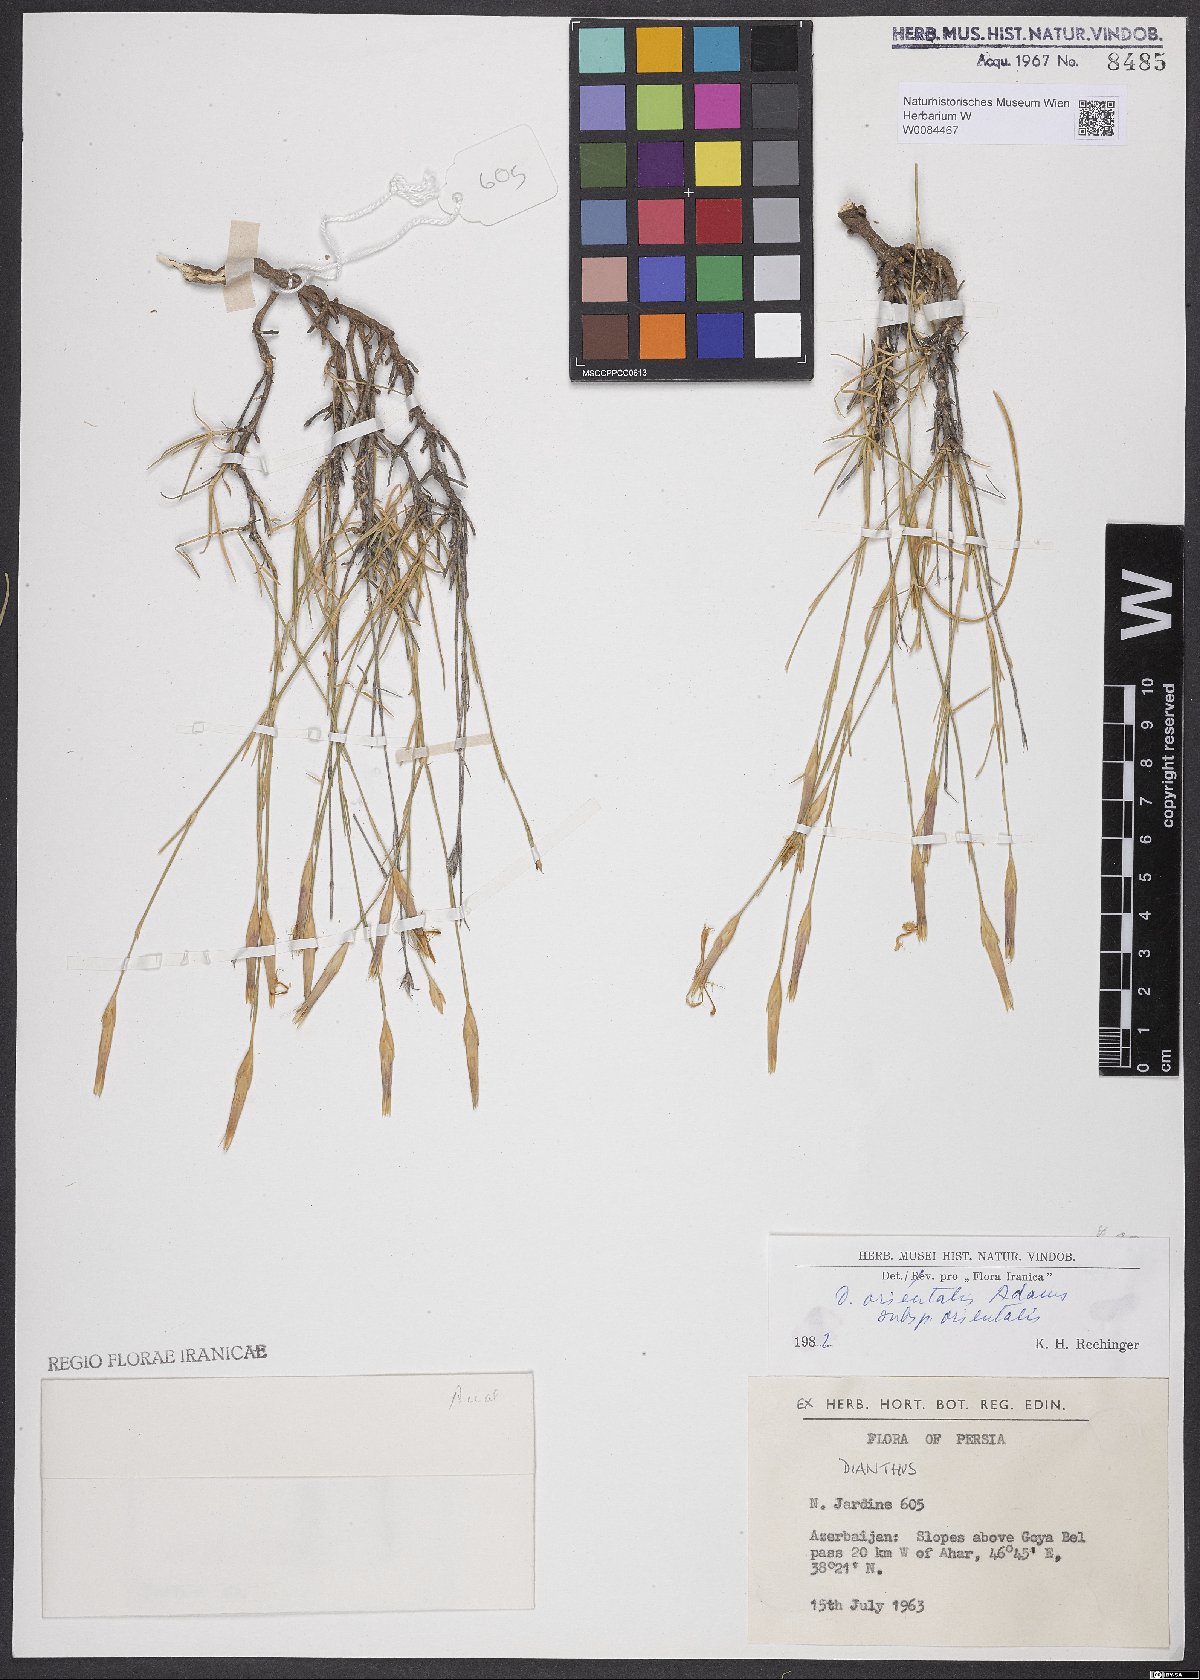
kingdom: Plantae
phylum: Tracheophyta
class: Magnoliopsida
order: Caryophyllales
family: Caryophyllaceae
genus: Dianthus
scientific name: Dianthus orientalis
